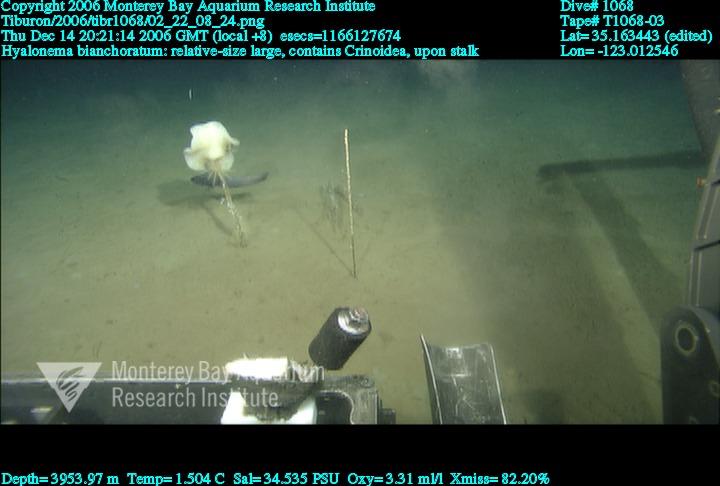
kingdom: Animalia
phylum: Porifera
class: Hexactinellida
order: Amphidiscosida
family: Hyalonematidae
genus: Hyalonema
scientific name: Hyalonema bianchoratum
